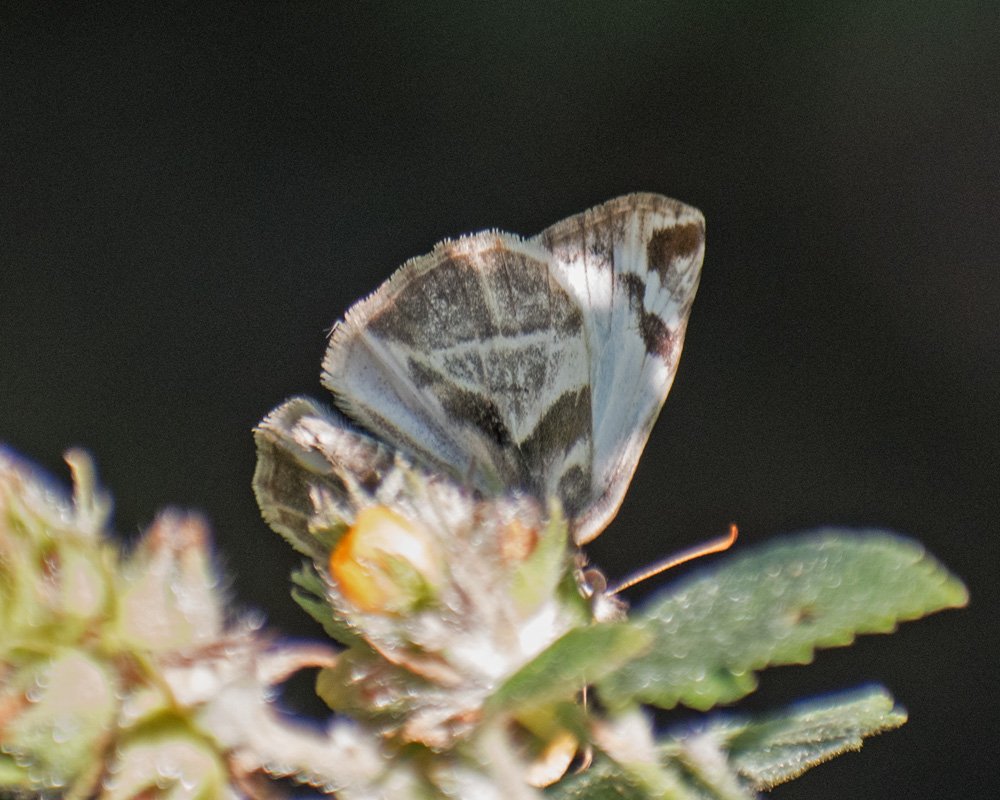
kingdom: Animalia
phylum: Arthropoda
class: Insecta
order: Lepidoptera
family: Hesperiidae
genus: Heliopetes
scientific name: Heliopetes laviana
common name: Laviana White-Skipper
